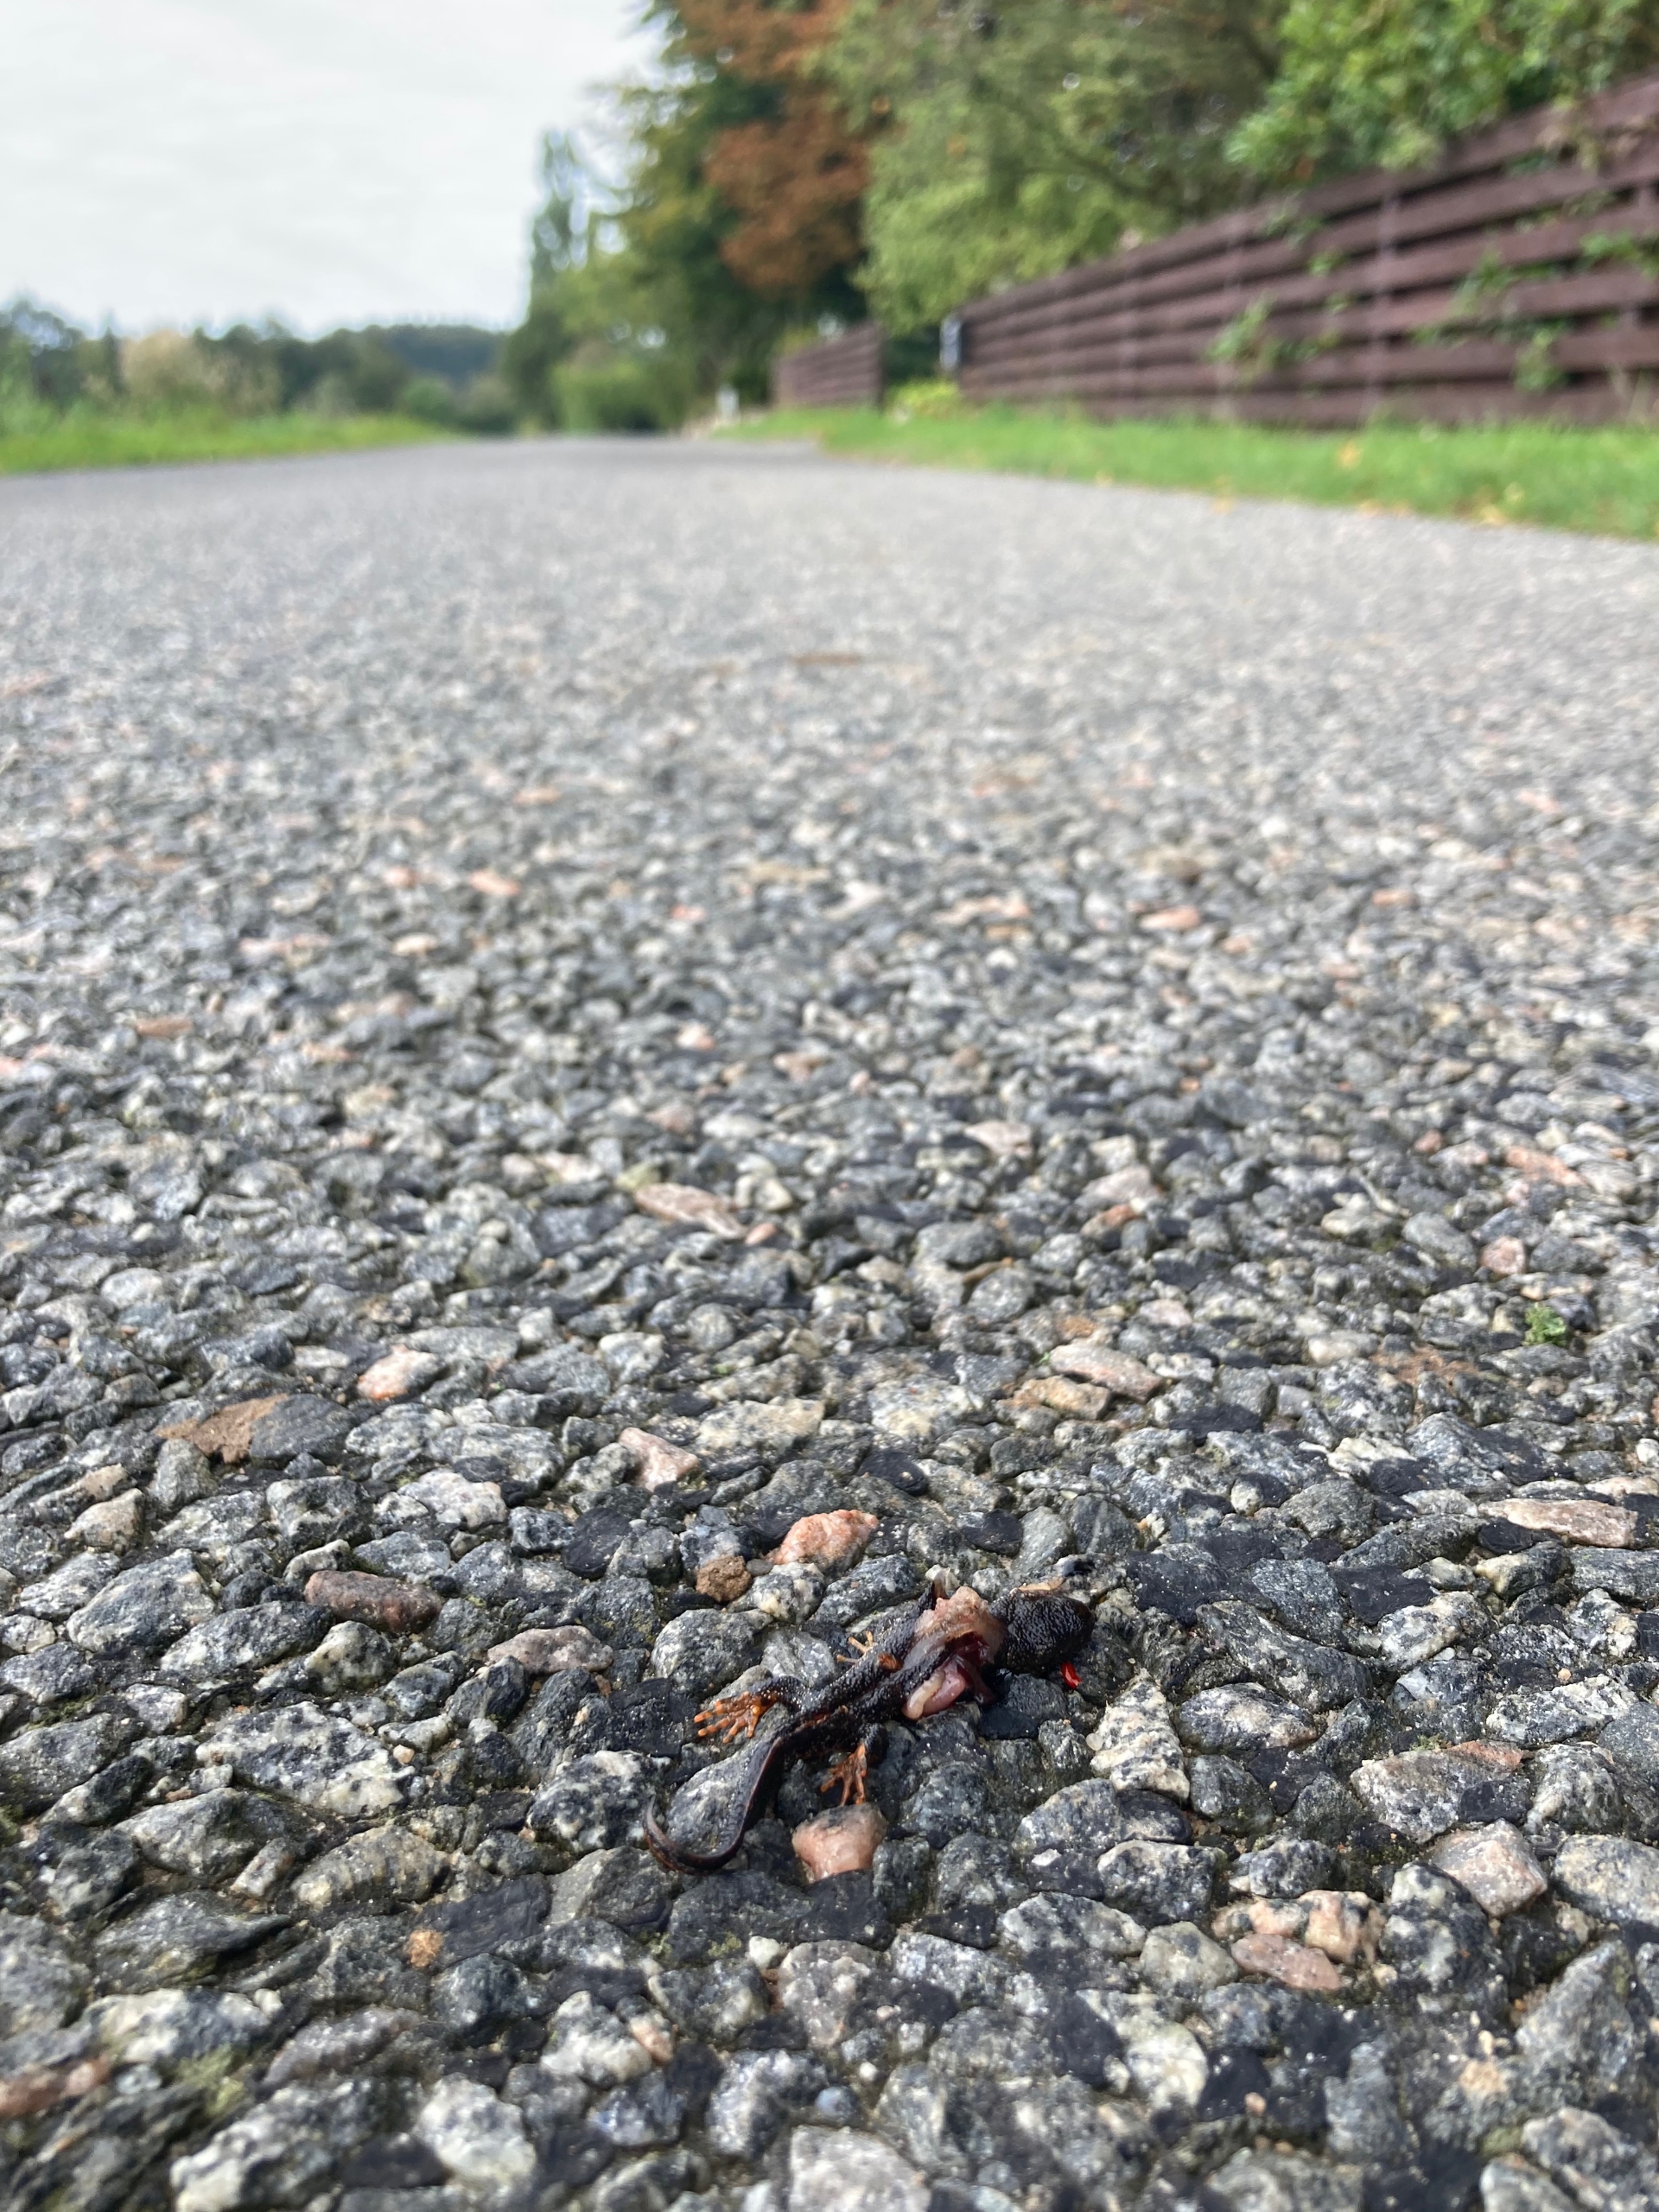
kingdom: Animalia
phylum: Chordata
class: Amphibia
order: Caudata
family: Salamandridae
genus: Triturus
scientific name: Triturus cristatus
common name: Stor vandsalamander
